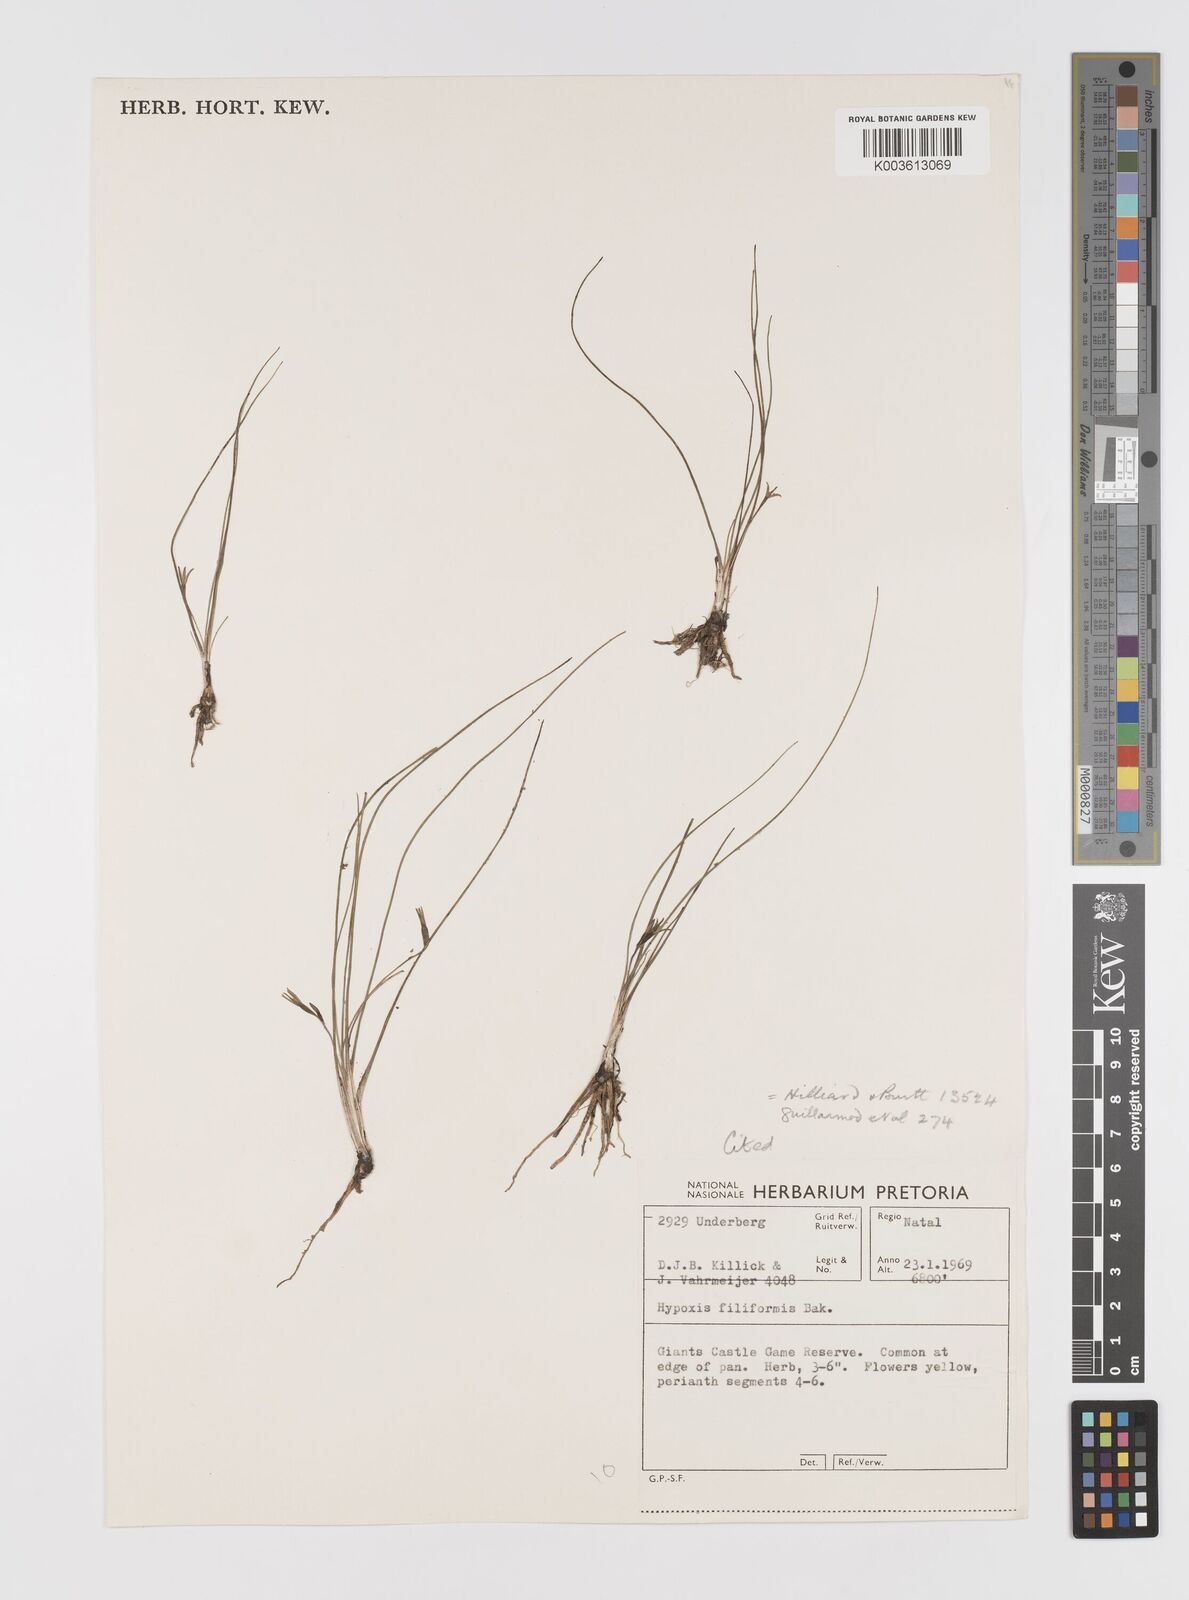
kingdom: Plantae
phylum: Tracheophyta
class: Liliopsida
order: Asparagales
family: Hypoxidaceae
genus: Hypoxis
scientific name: Hypoxis tetramera
